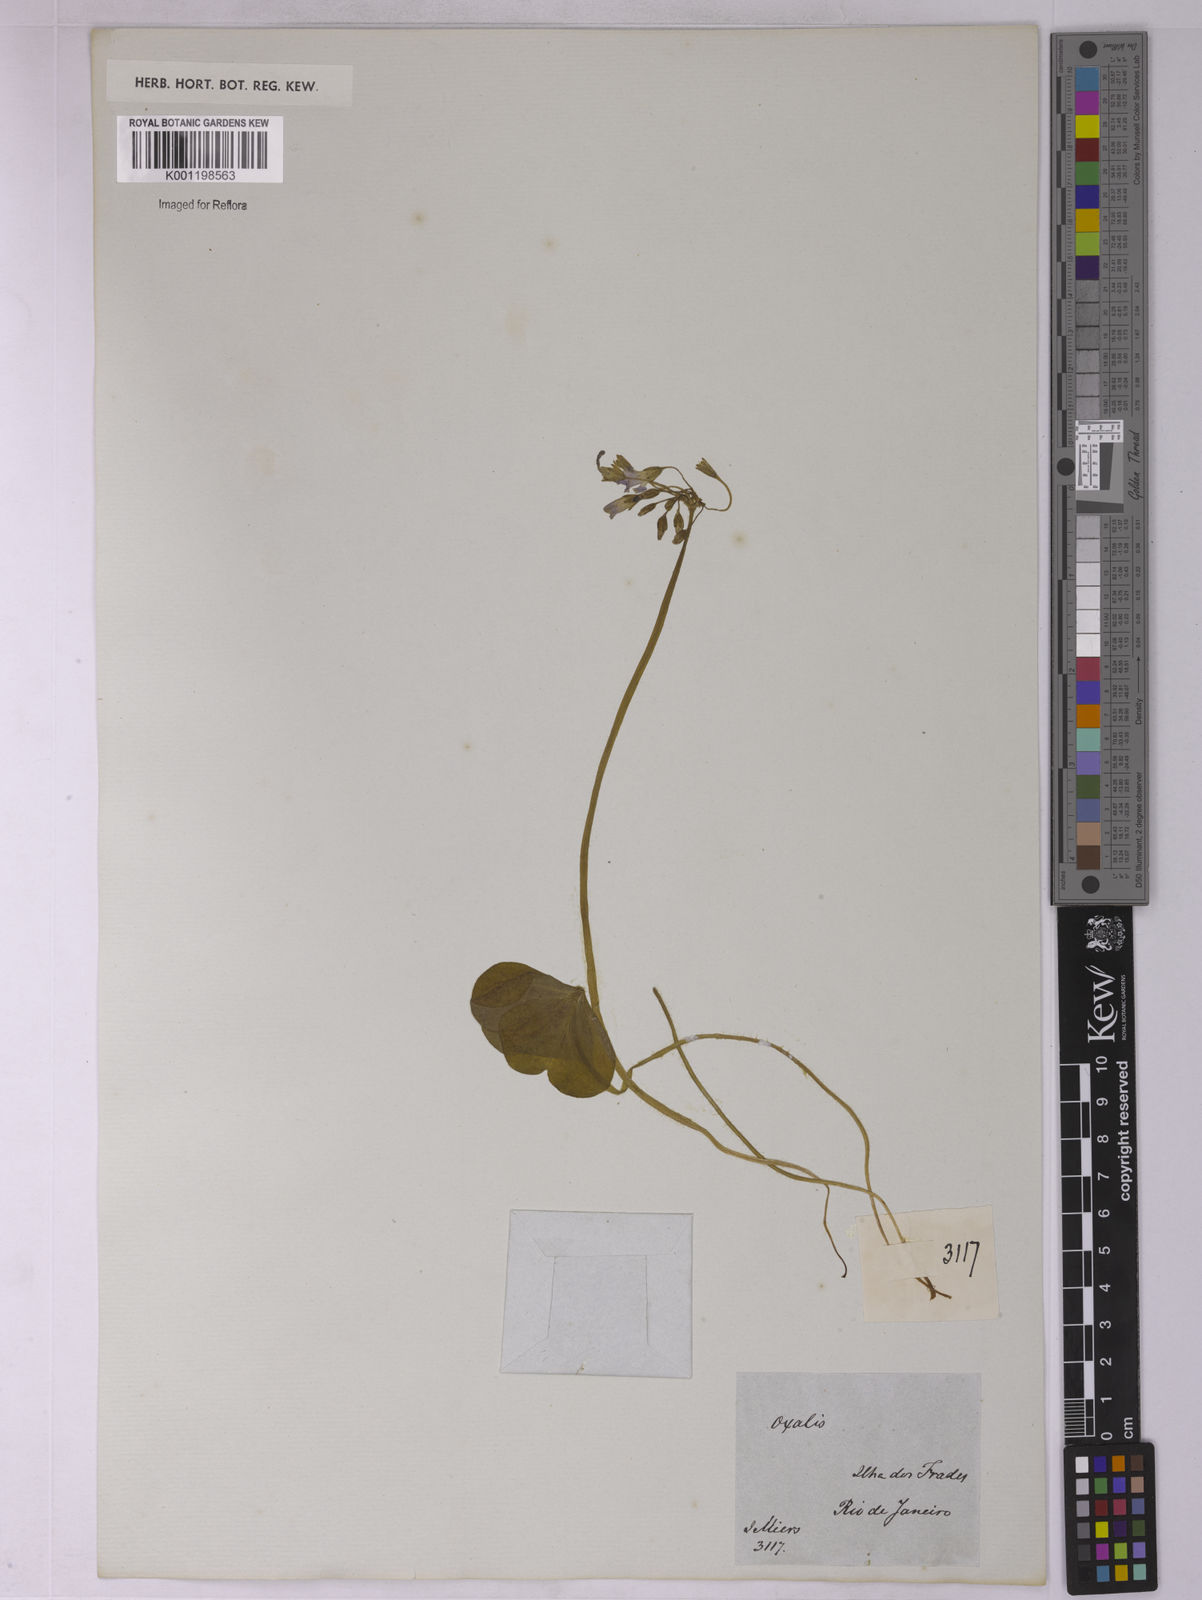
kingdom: Plantae
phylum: Tracheophyta
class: Magnoliopsida
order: Oxalidales
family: Oxalidaceae
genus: Oxalis
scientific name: Oxalis
